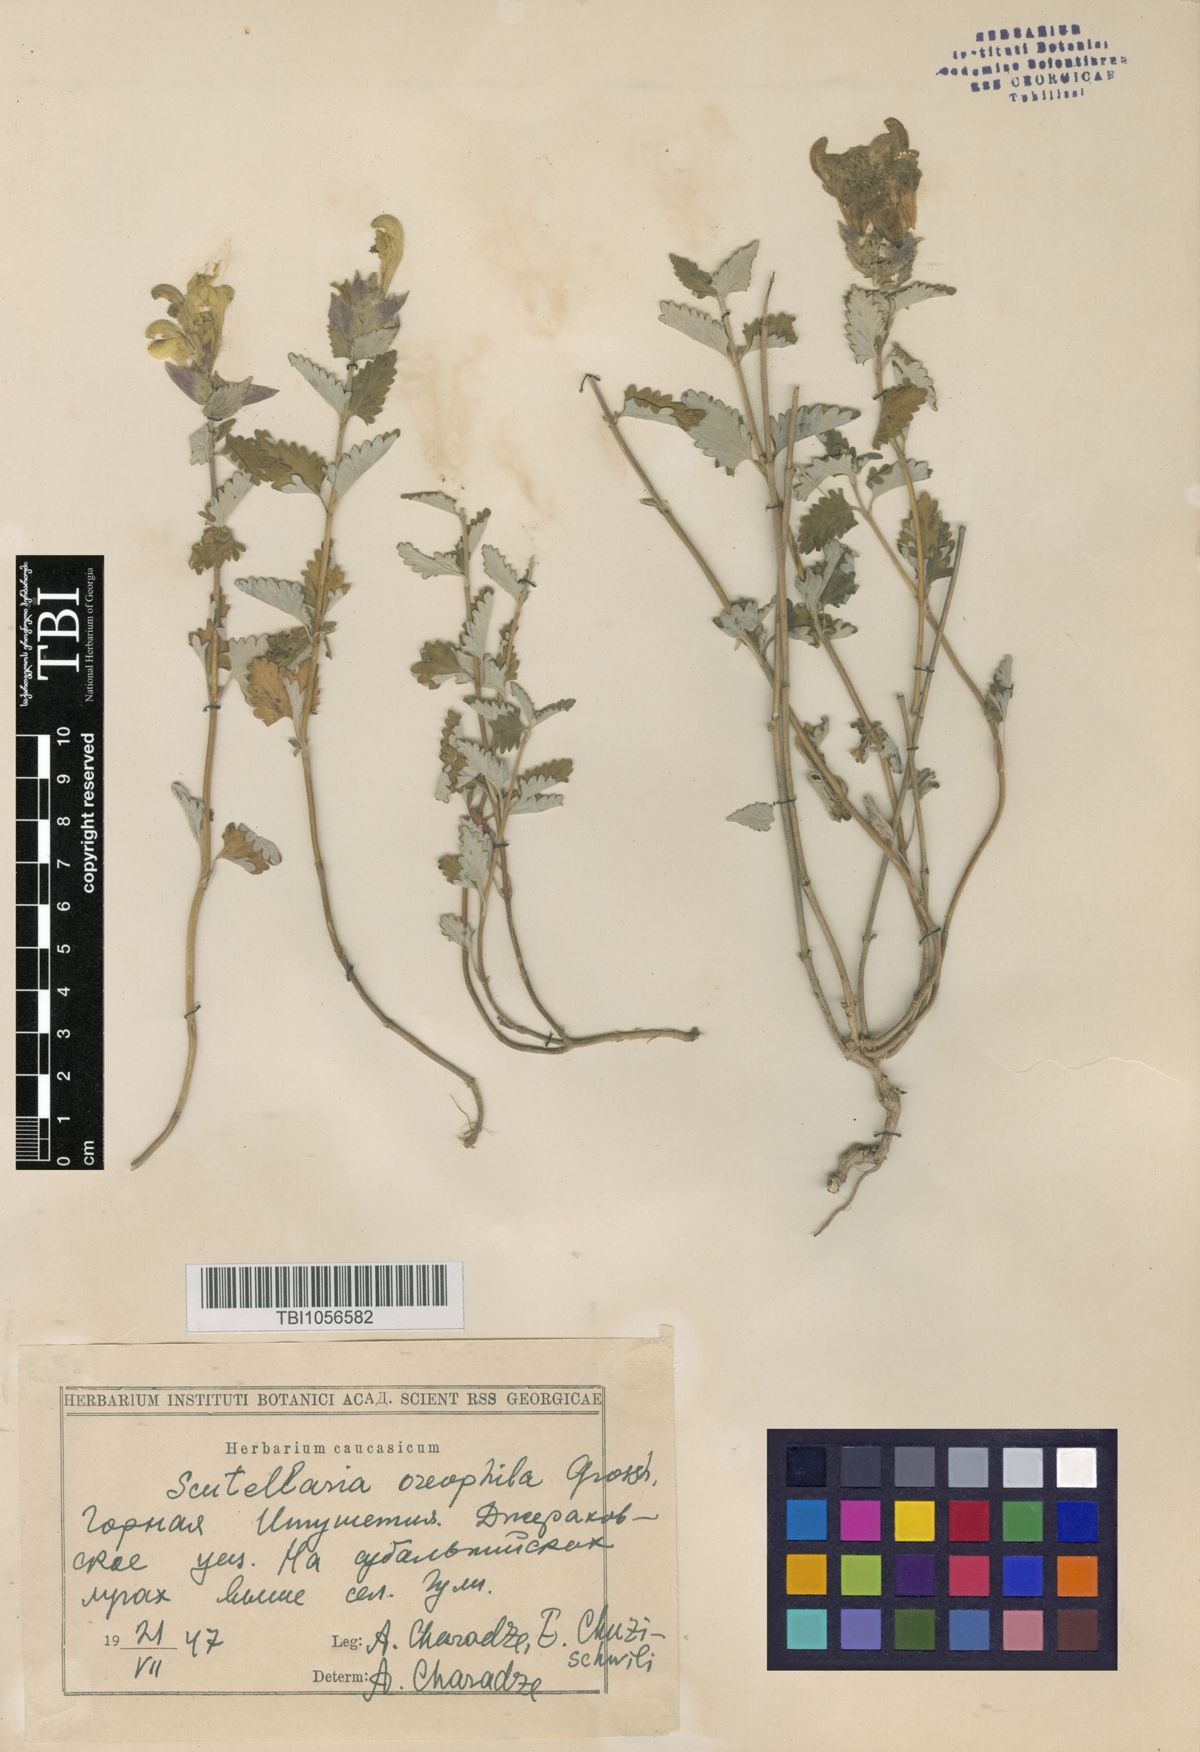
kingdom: Plantae
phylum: Tracheophyta
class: Magnoliopsida
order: Lamiales
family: Lamiaceae
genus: Scutellaria
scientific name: Scutellaria oreophila
